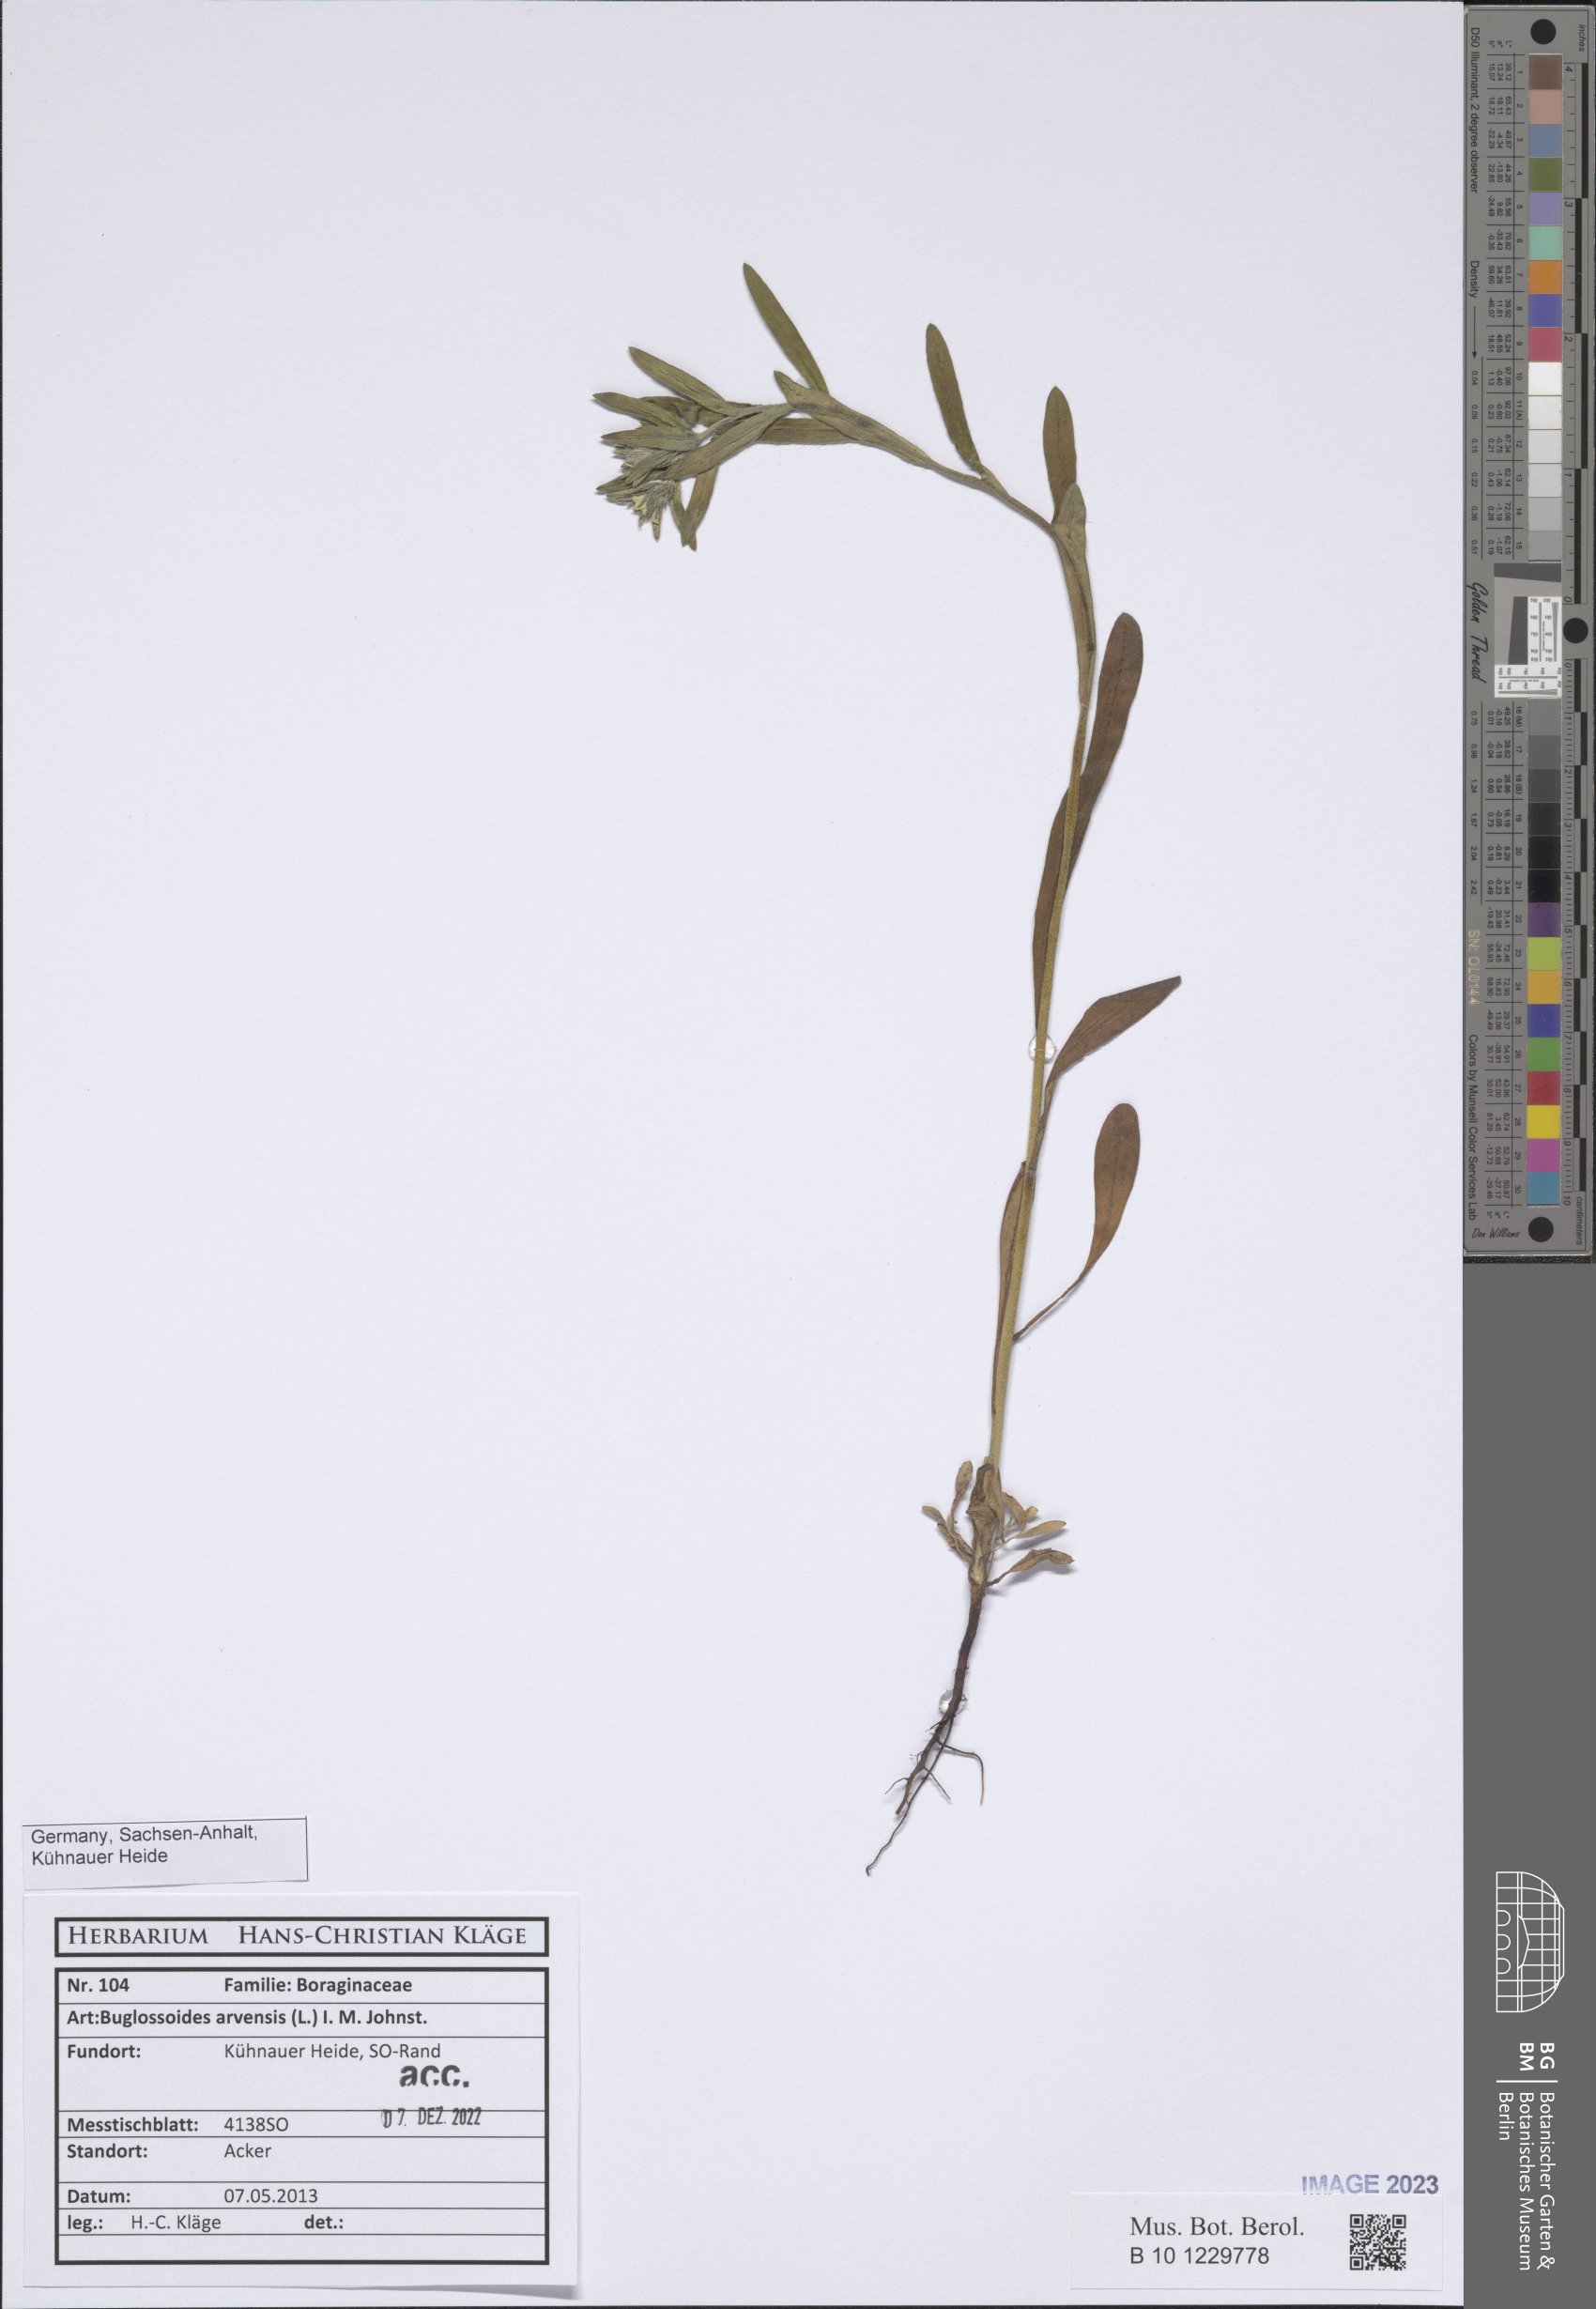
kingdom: Plantae
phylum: Tracheophyta
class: Magnoliopsida
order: Boraginales
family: Boraginaceae
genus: Buglossoides
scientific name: Buglossoides arvensis
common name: Corn gromwell
